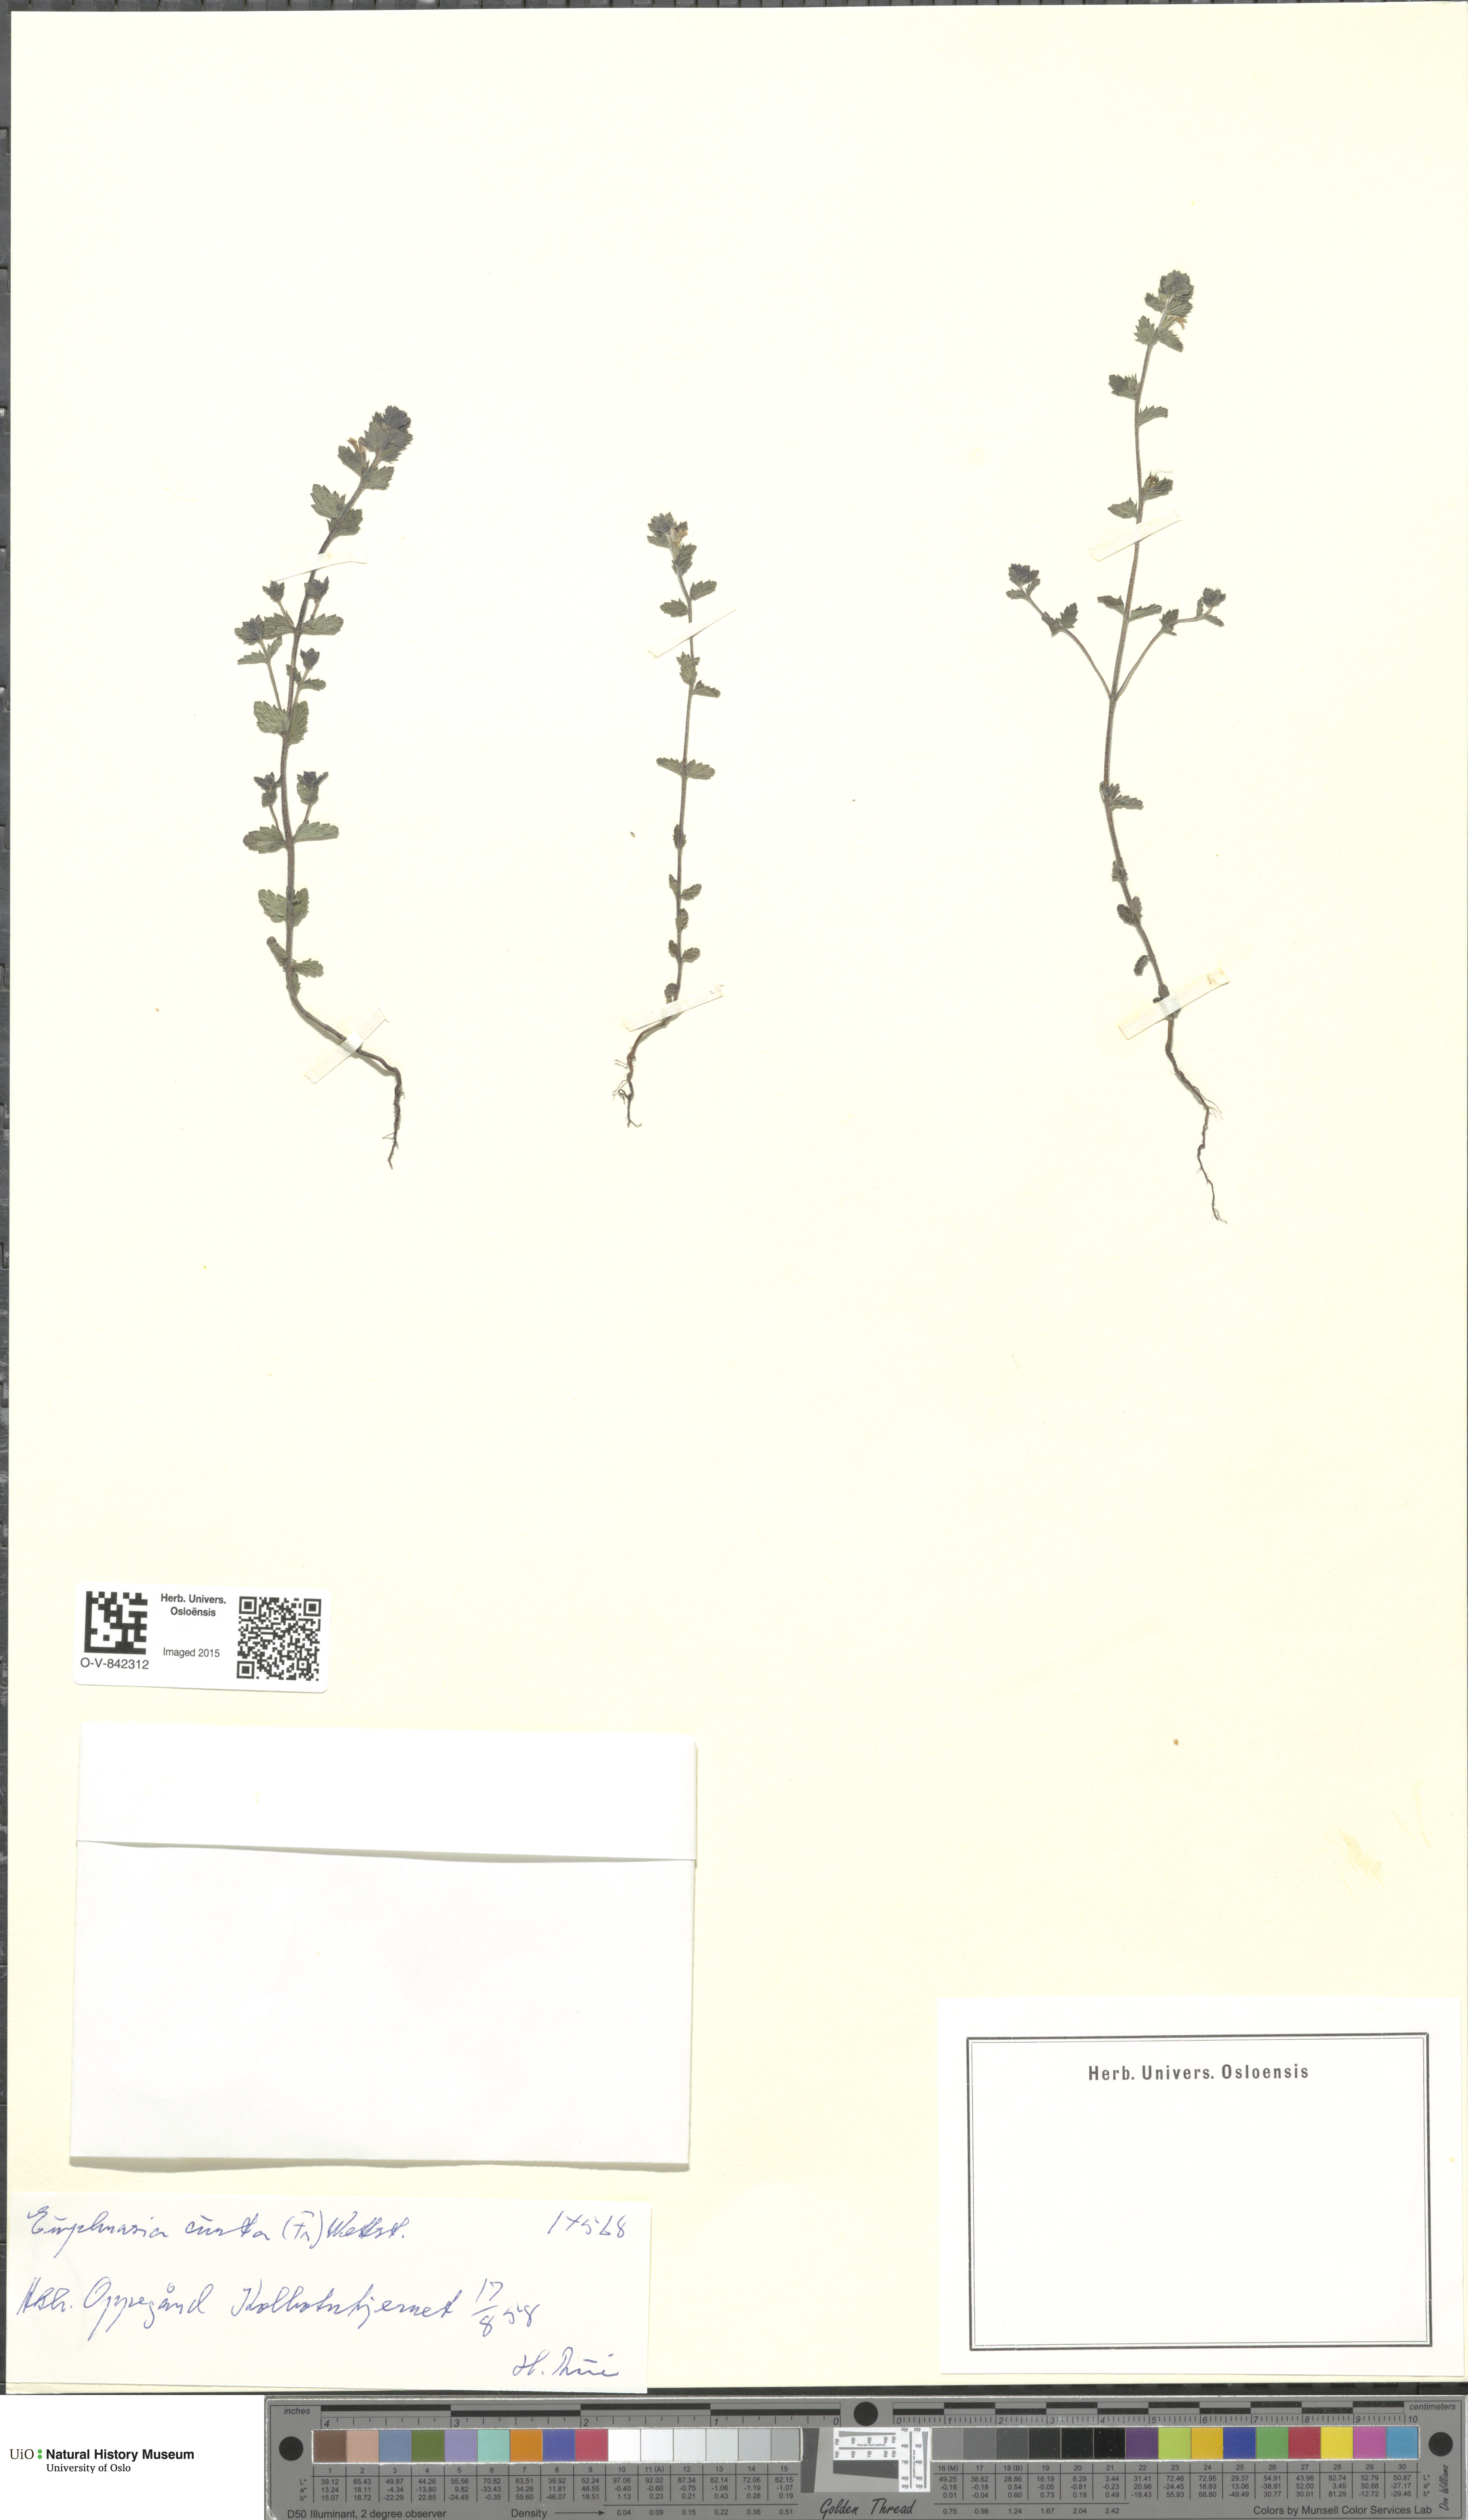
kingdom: Plantae
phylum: Tracheophyta
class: Magnoliopsida
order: Lamiales
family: Orobanchaceae
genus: Euphrasia
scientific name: Euphrasia micrantha
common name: Northern eyebright
